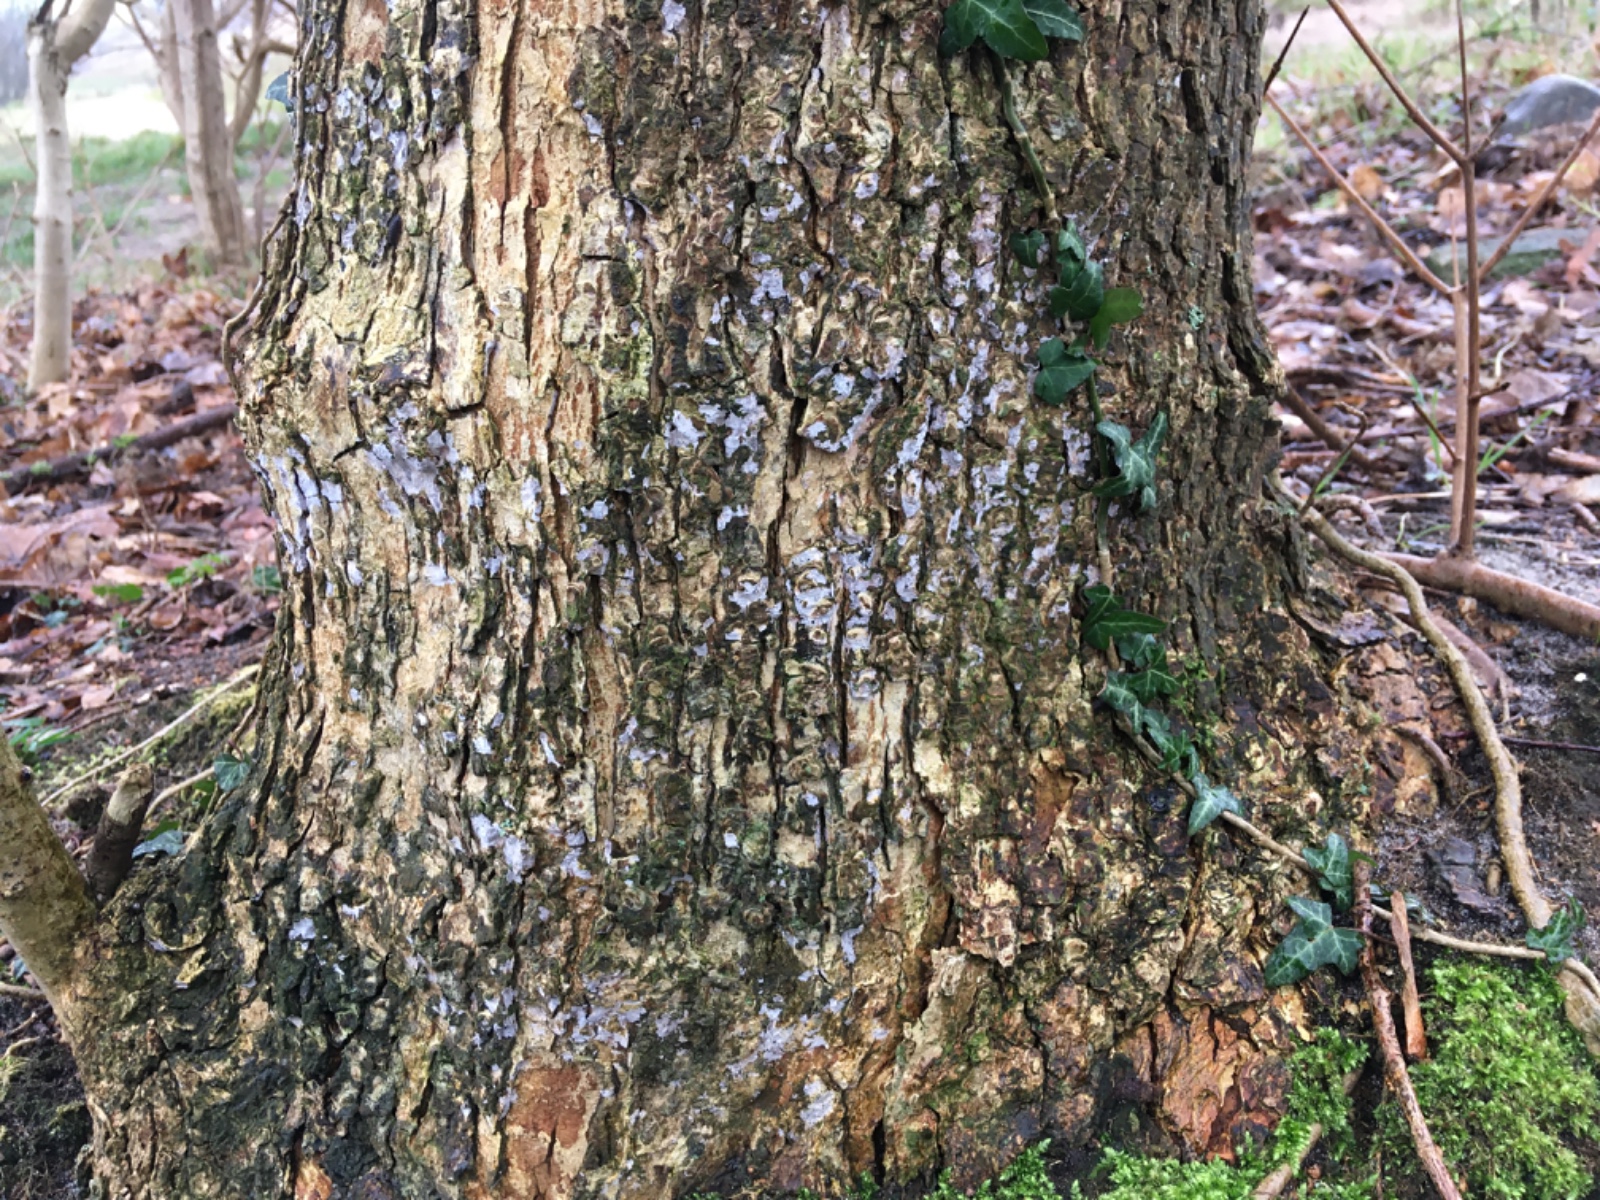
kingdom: Fungi
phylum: Basidiomycota
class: Agaricomycetes
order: Agaricales
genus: Dendrothele
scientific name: Dendrothele acerina
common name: navr-kalkplet
